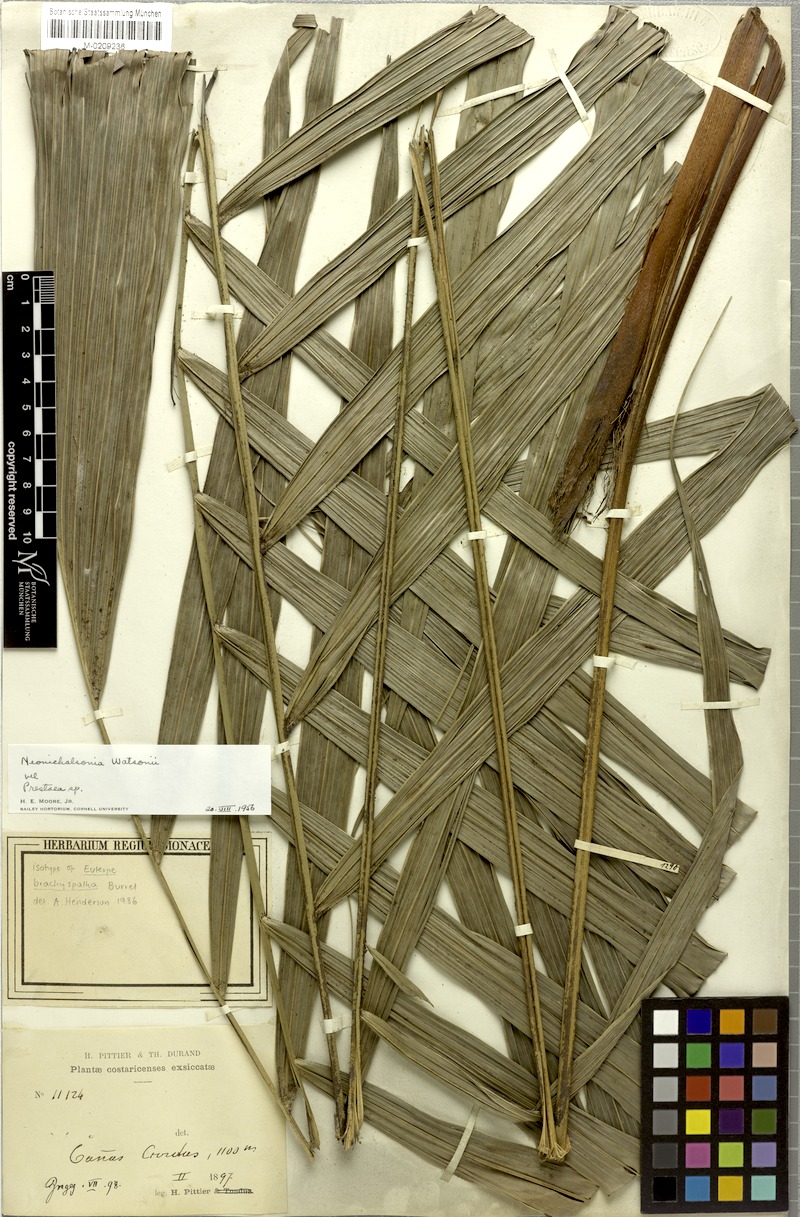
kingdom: Plantae
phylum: Tracheophyta
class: Liliopsida
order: Arecales
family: Arecaceae
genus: Prestoea
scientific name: Prestoea longepetiolata
